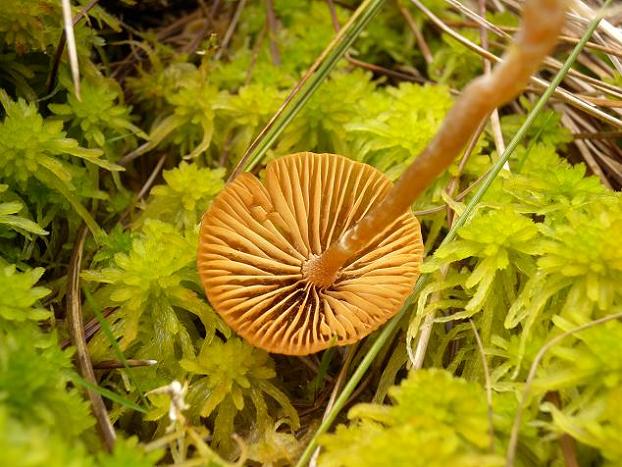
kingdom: Fungi
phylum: Basidiomycota
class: Agaricomycetes
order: Agaricales
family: Hymenogastraceae
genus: Galerina
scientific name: Galerina paludosa
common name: mose-hjelmhat
